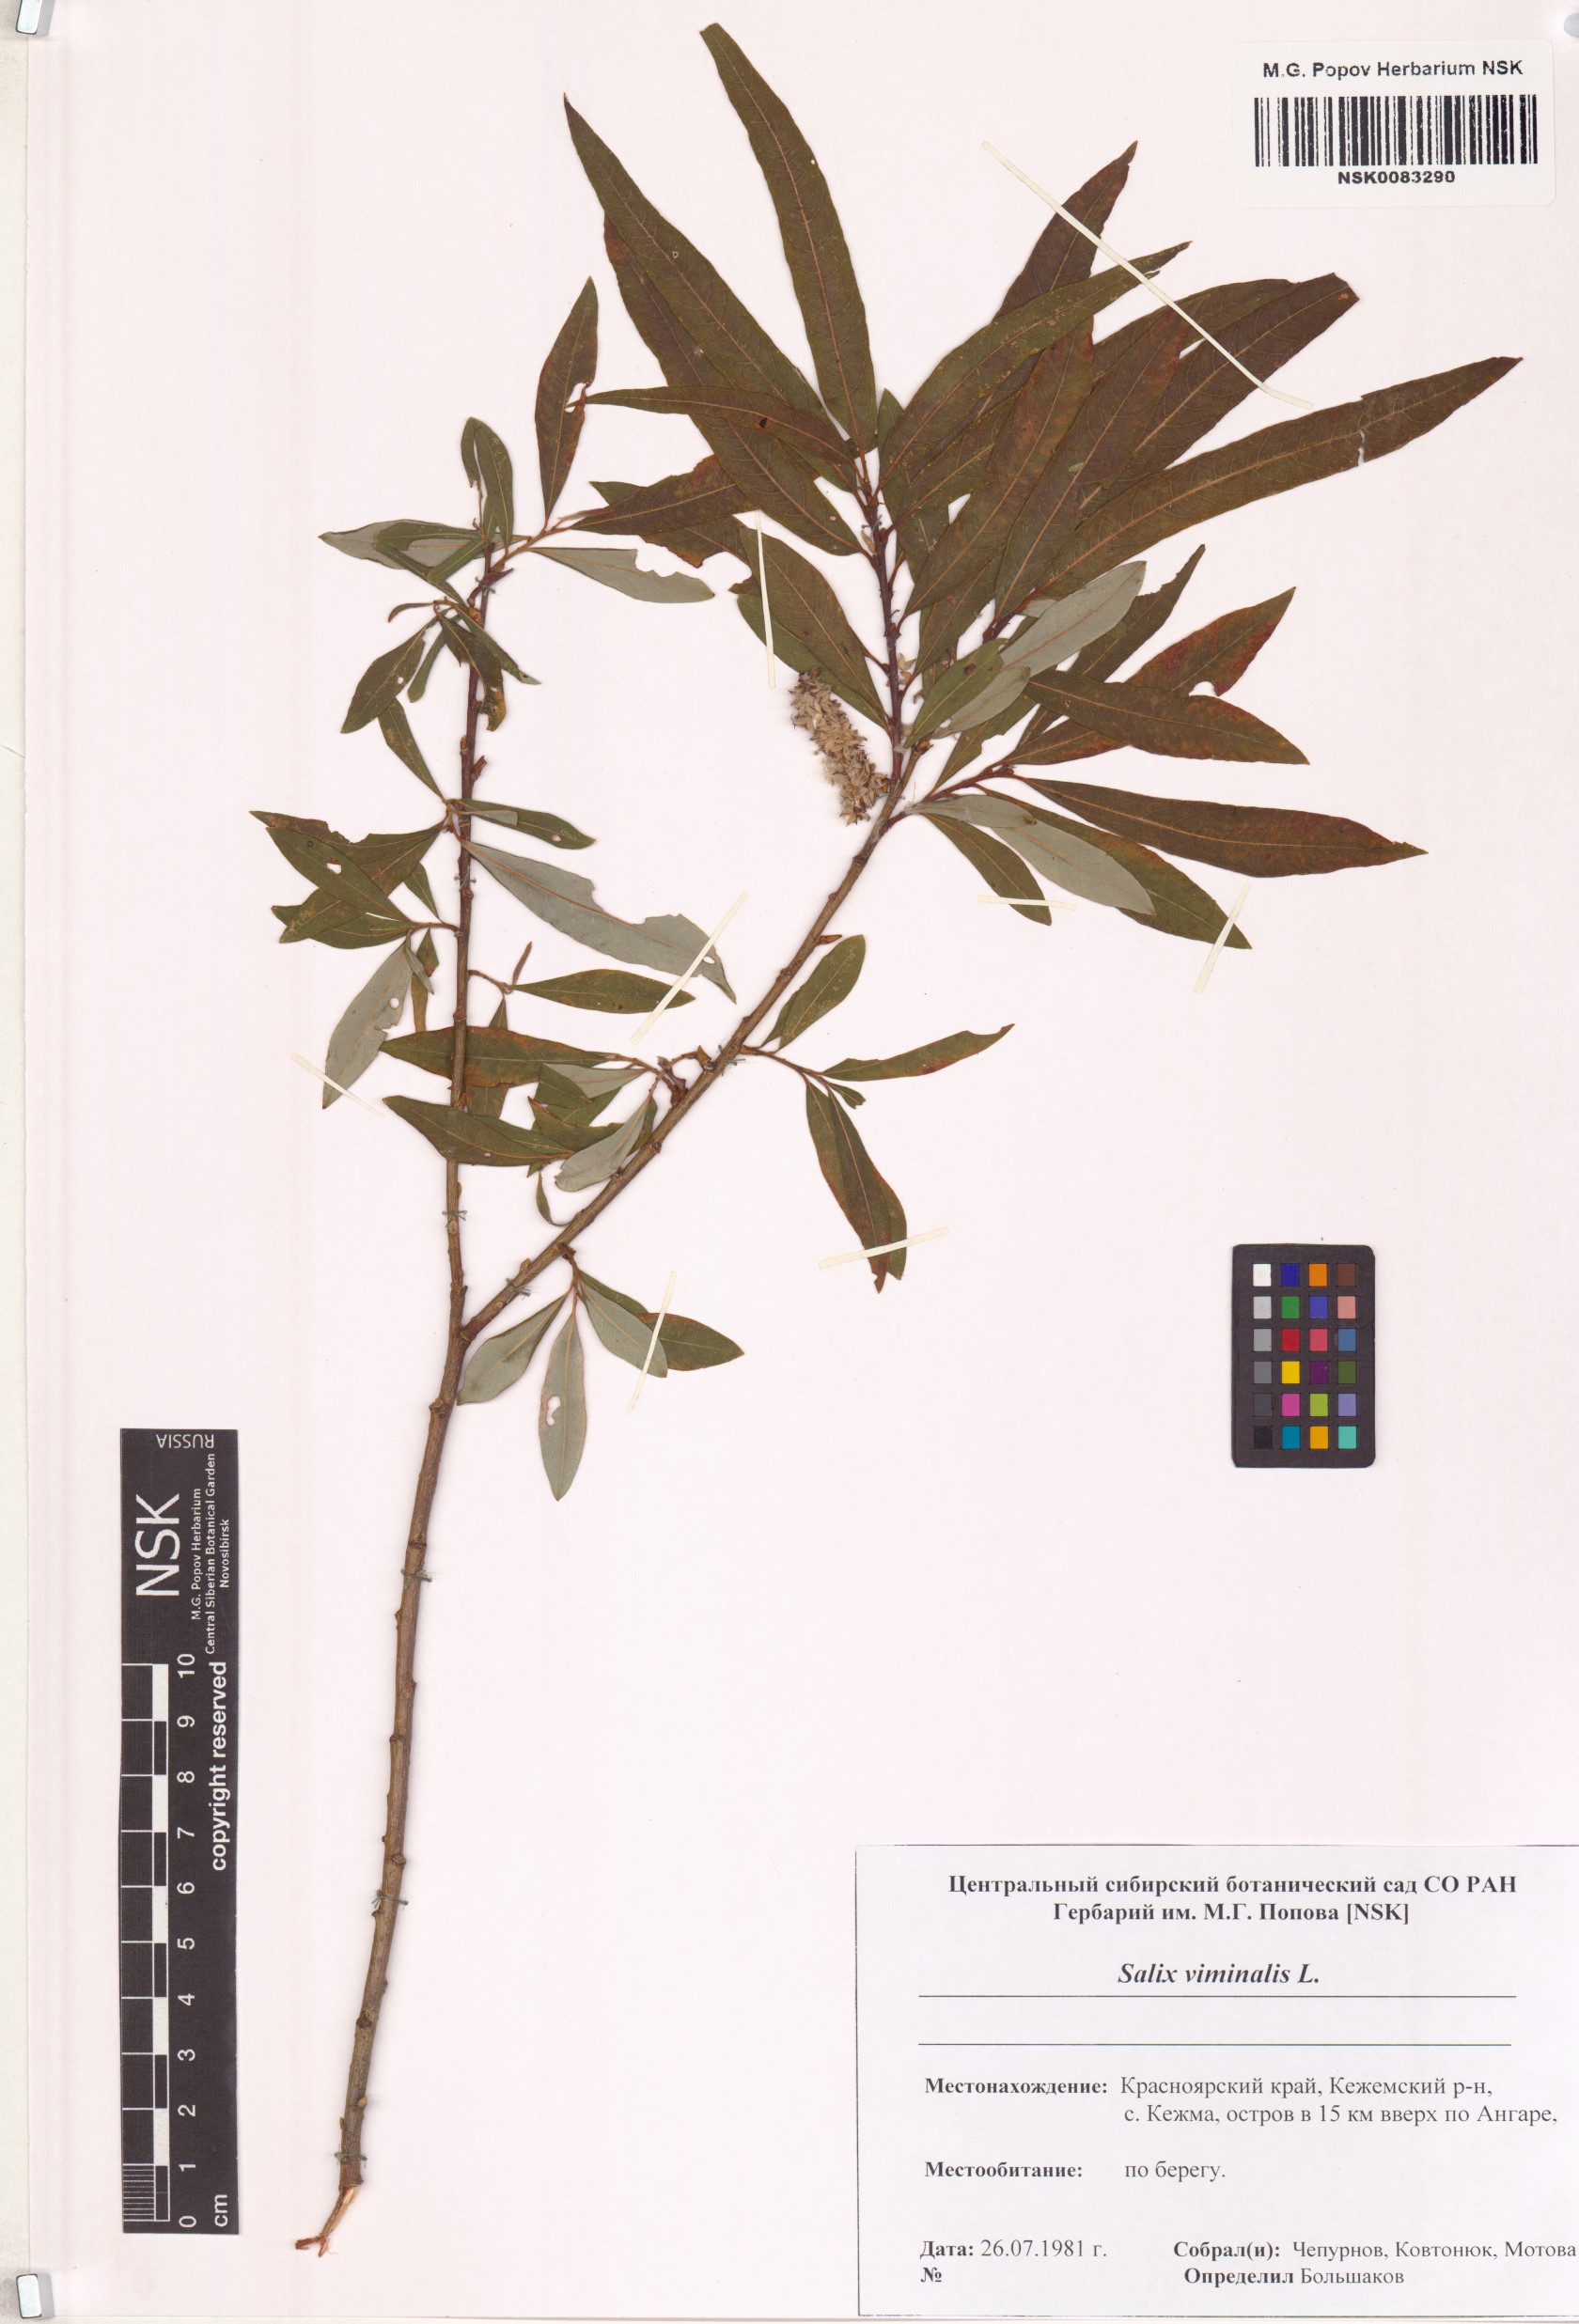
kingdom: Plantae
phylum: Tracheophyta
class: Magnoliopsida
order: Malpighiales
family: Salicaceae
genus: Salix
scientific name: Salix viminalis
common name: Osier
